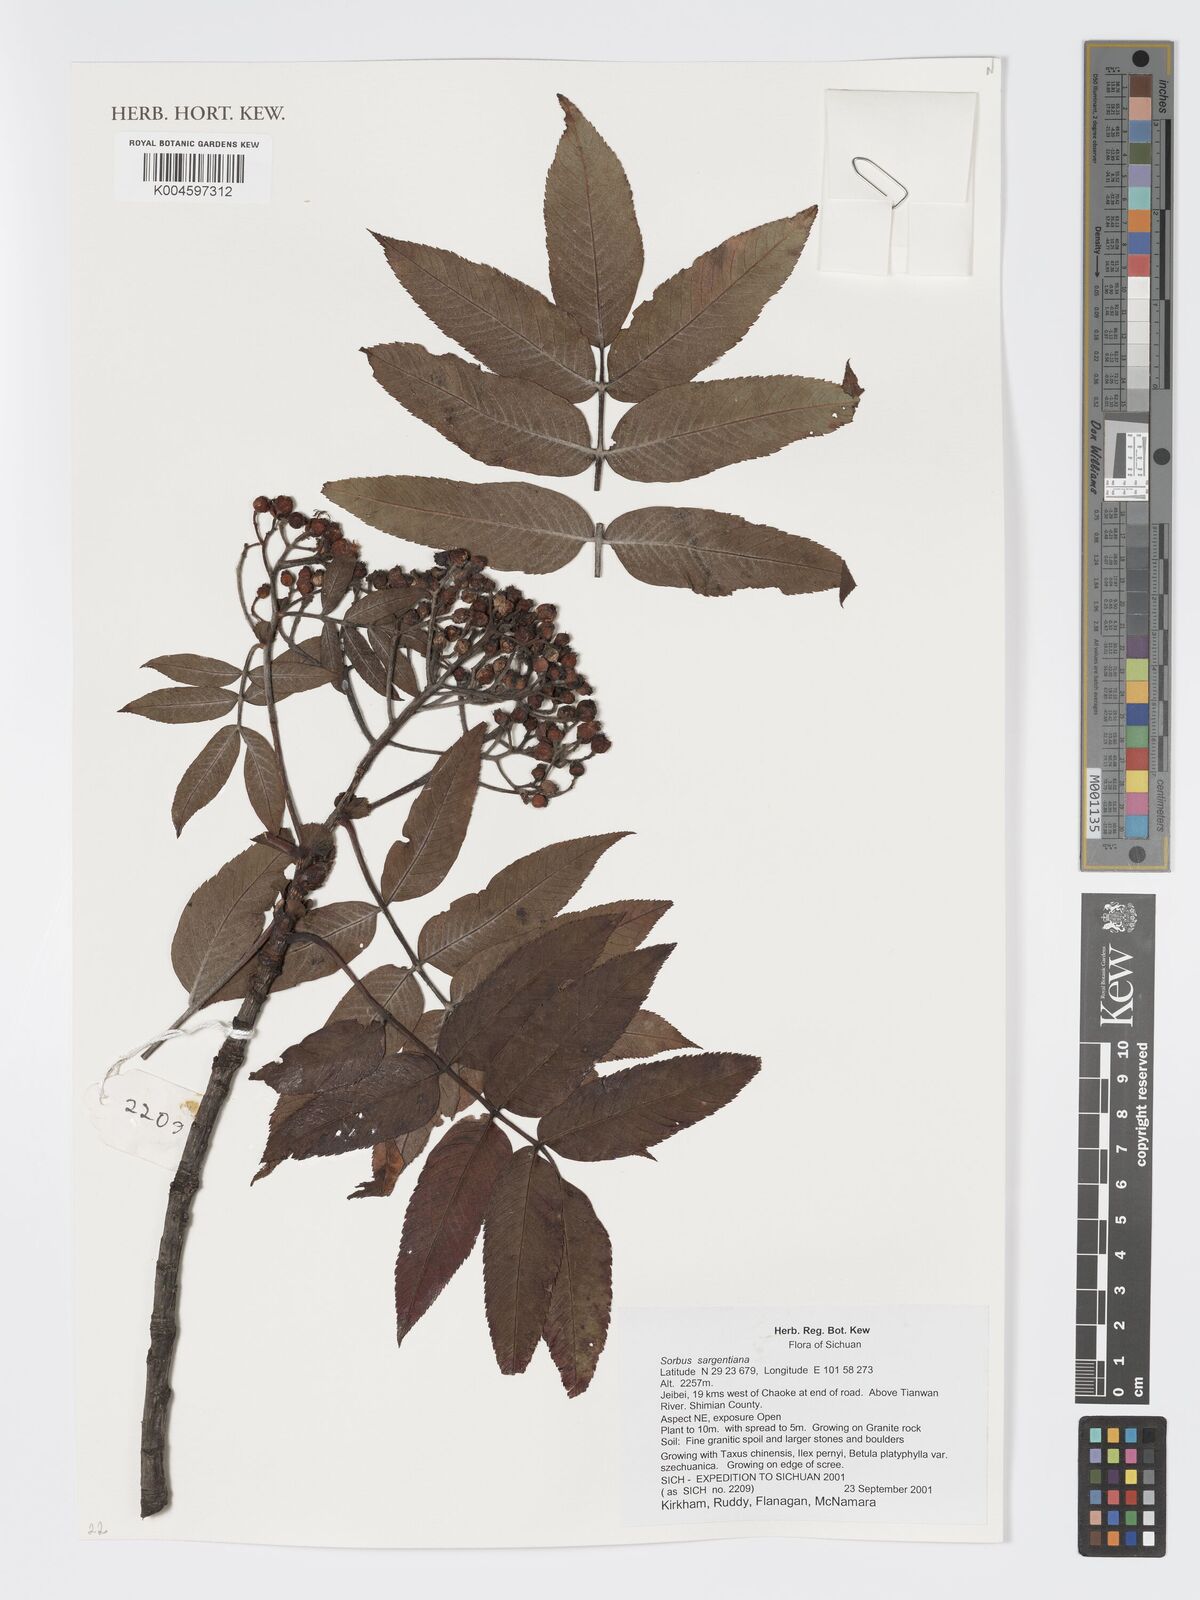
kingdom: Plantae
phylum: Tracheophyta
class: Magnoliopsida
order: Rosales
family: Rosaceae
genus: Sorbus
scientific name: Sorbus sargentiana
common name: Sargent's rowan
